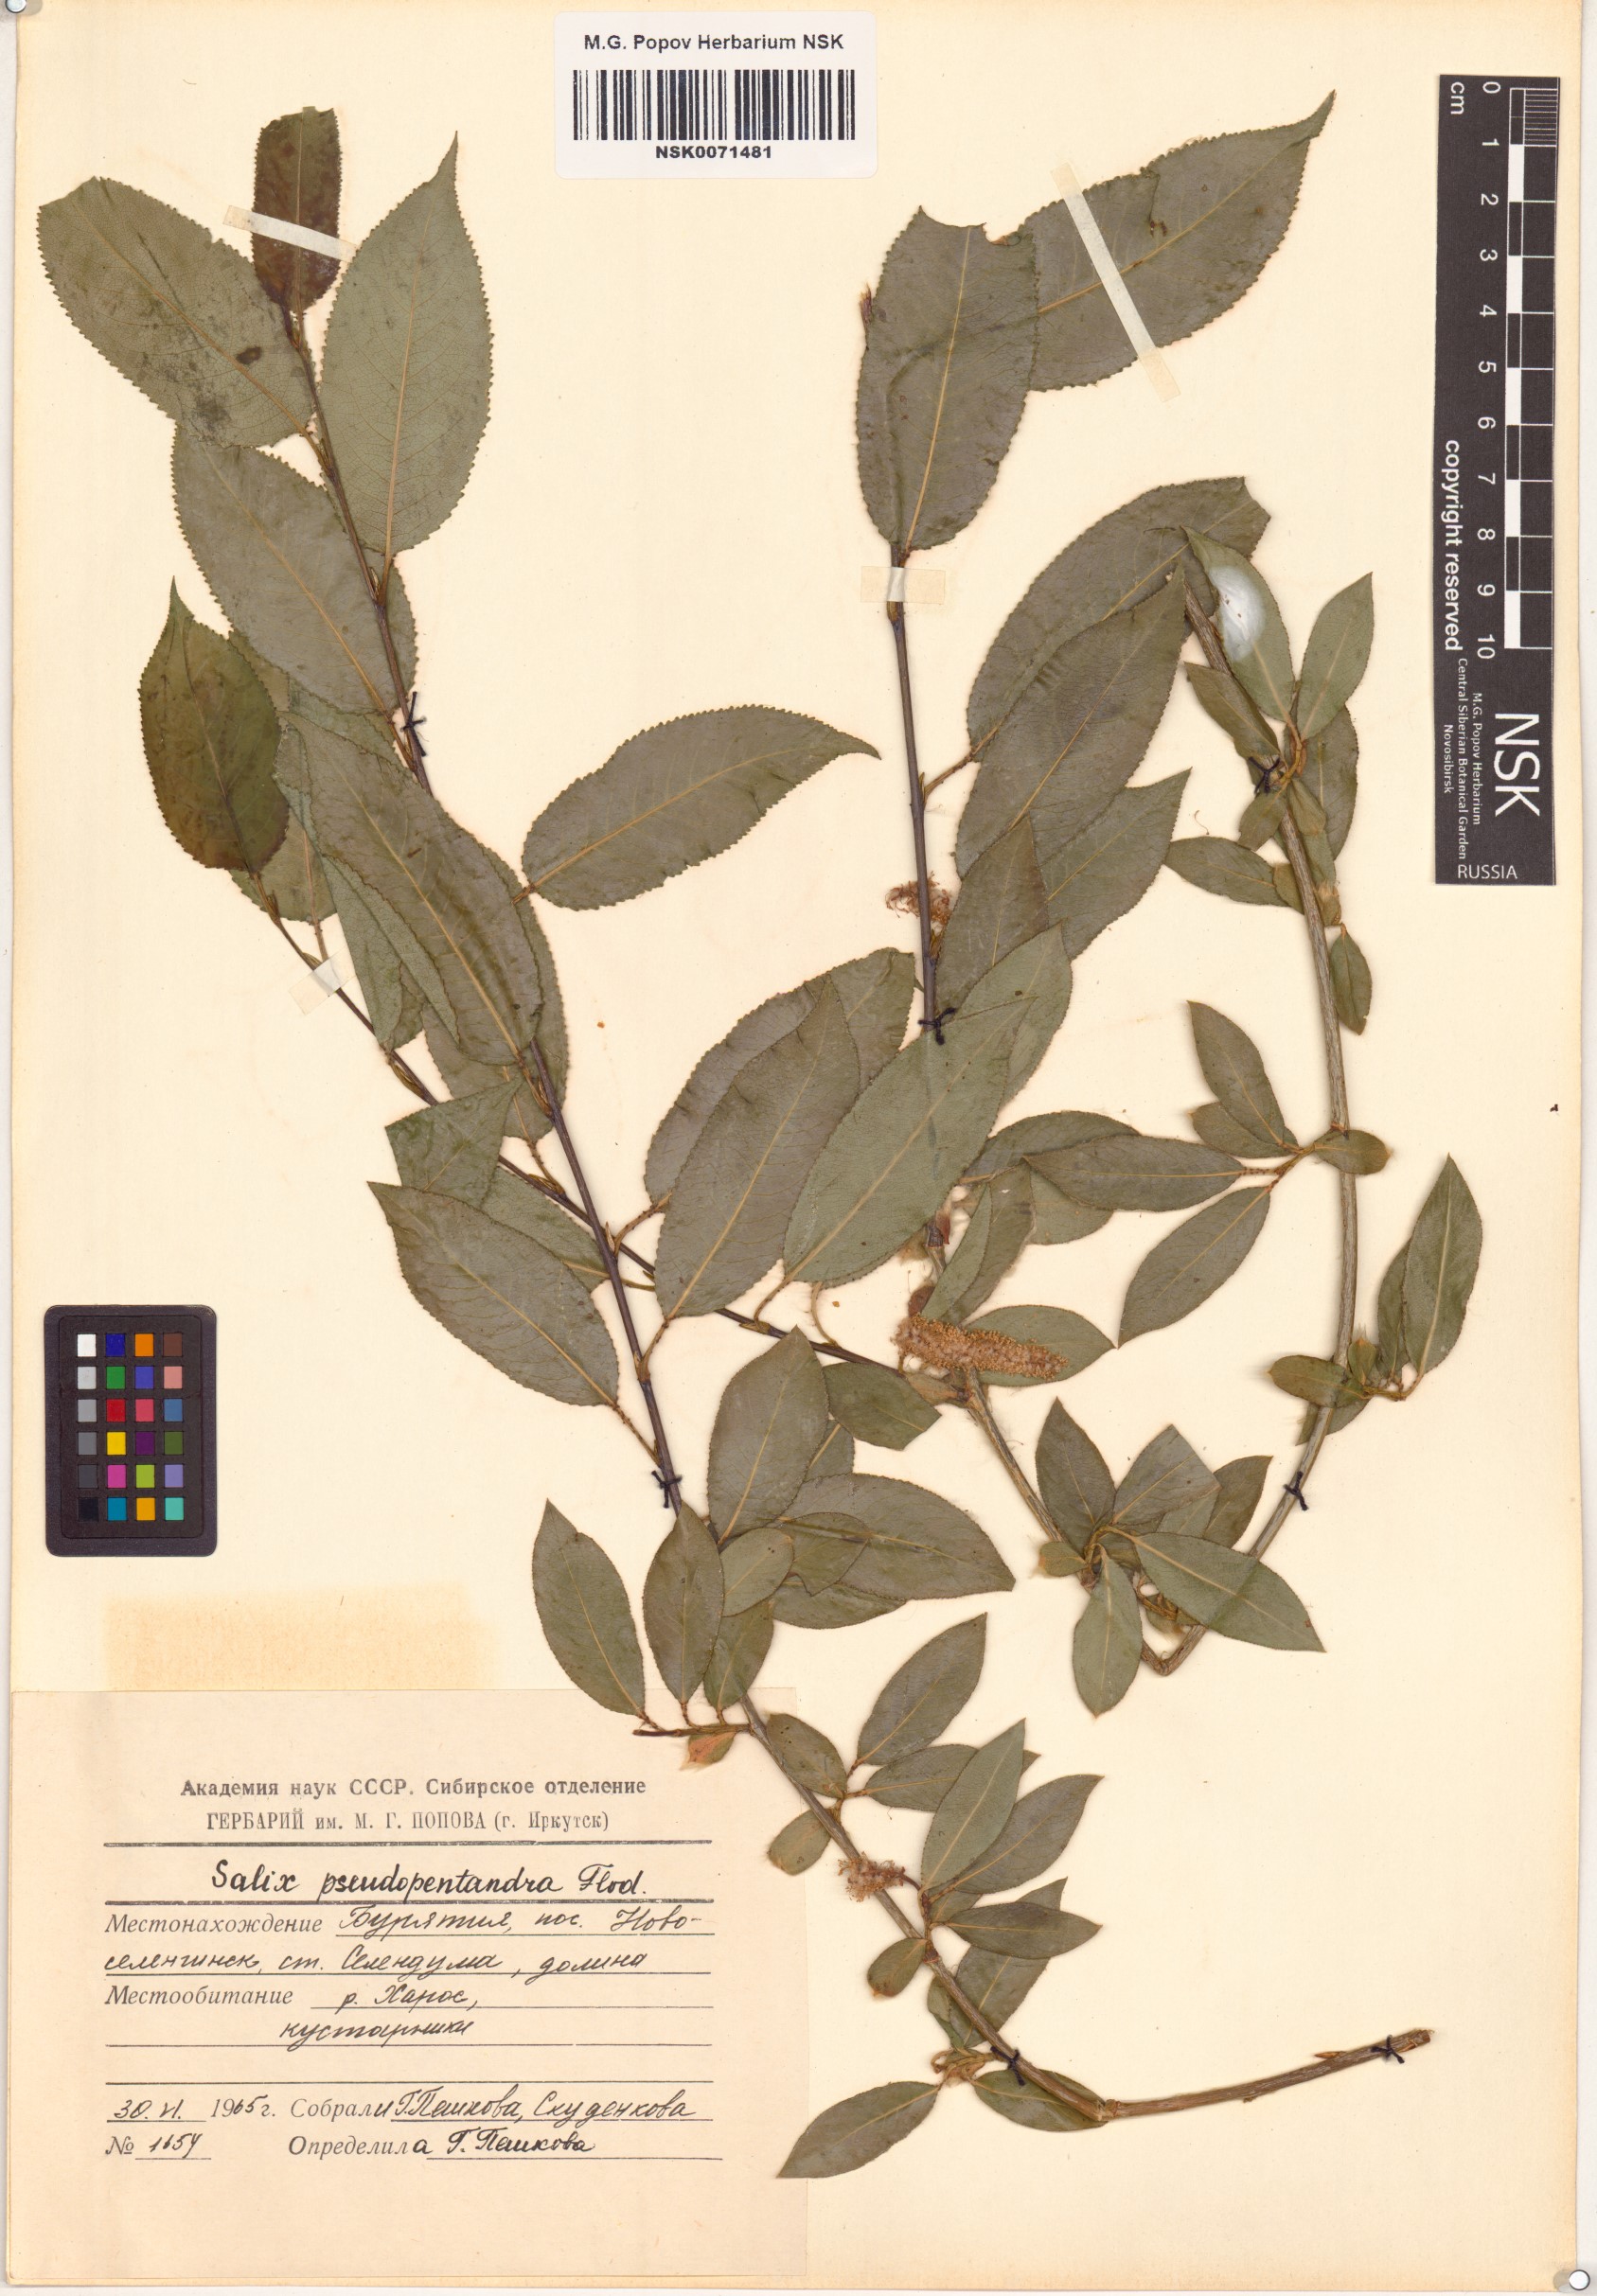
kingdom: Plantae
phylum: Tracheophyta
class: Magnoliopsida
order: Malpighiales
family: Salicaceae
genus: Salix
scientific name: Salix pseudopentandra
